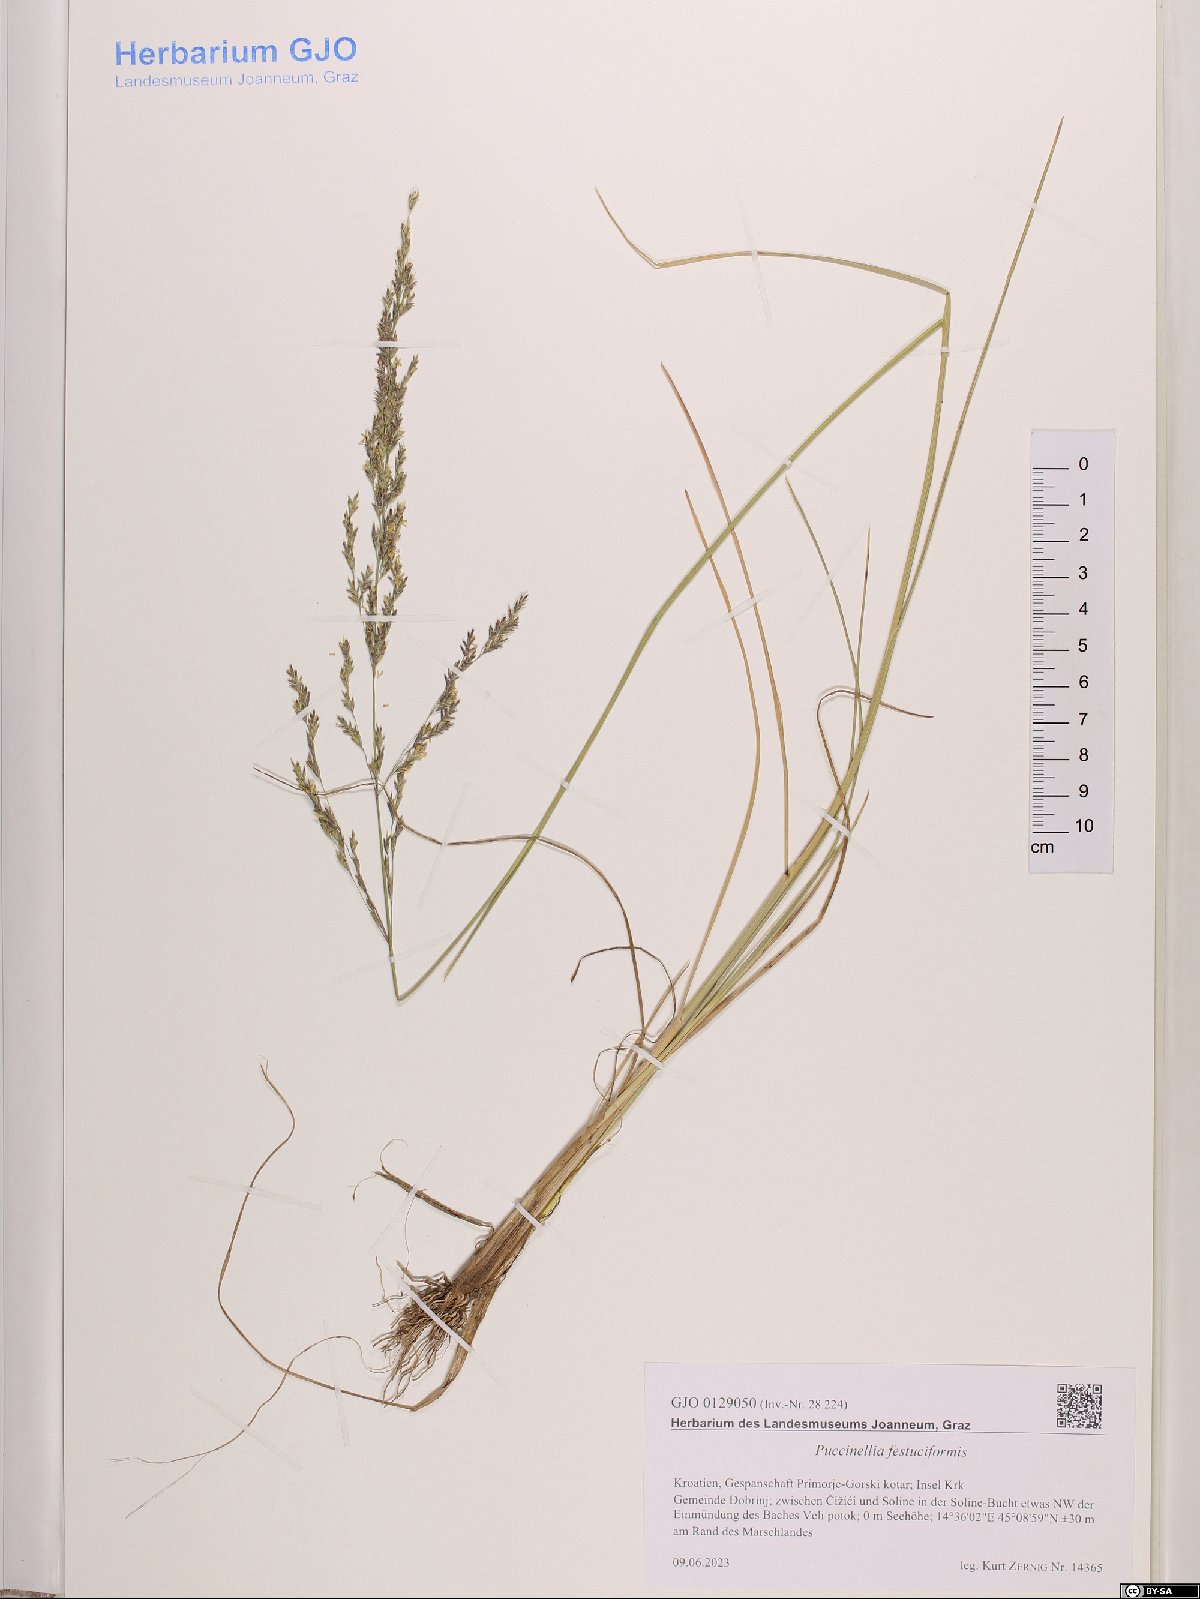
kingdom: Plantae
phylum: Tracheophyta
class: Liliopsida
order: Poales
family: Poaceae
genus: Puccinellia
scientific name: Puccinellia festuciformis
